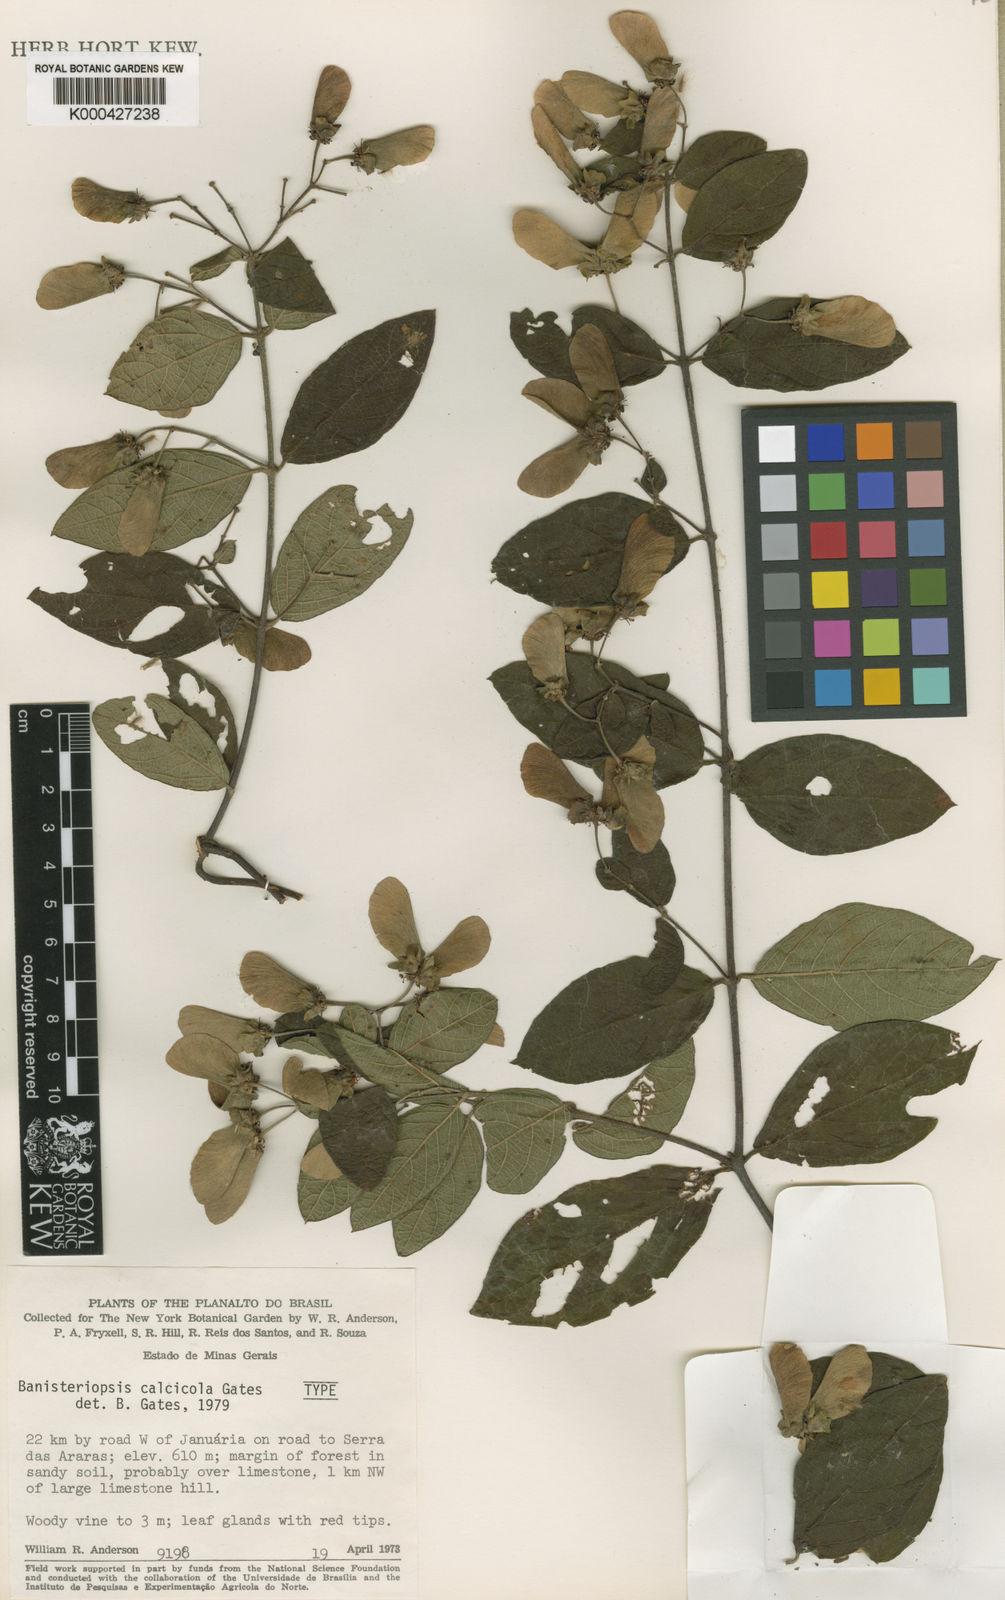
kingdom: Plantae
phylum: Tracheophyta
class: Magnoliopsida
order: Malpighiales
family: Malpighiaceae
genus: Banisteriopsis
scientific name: Banisteriopsis calcicola
